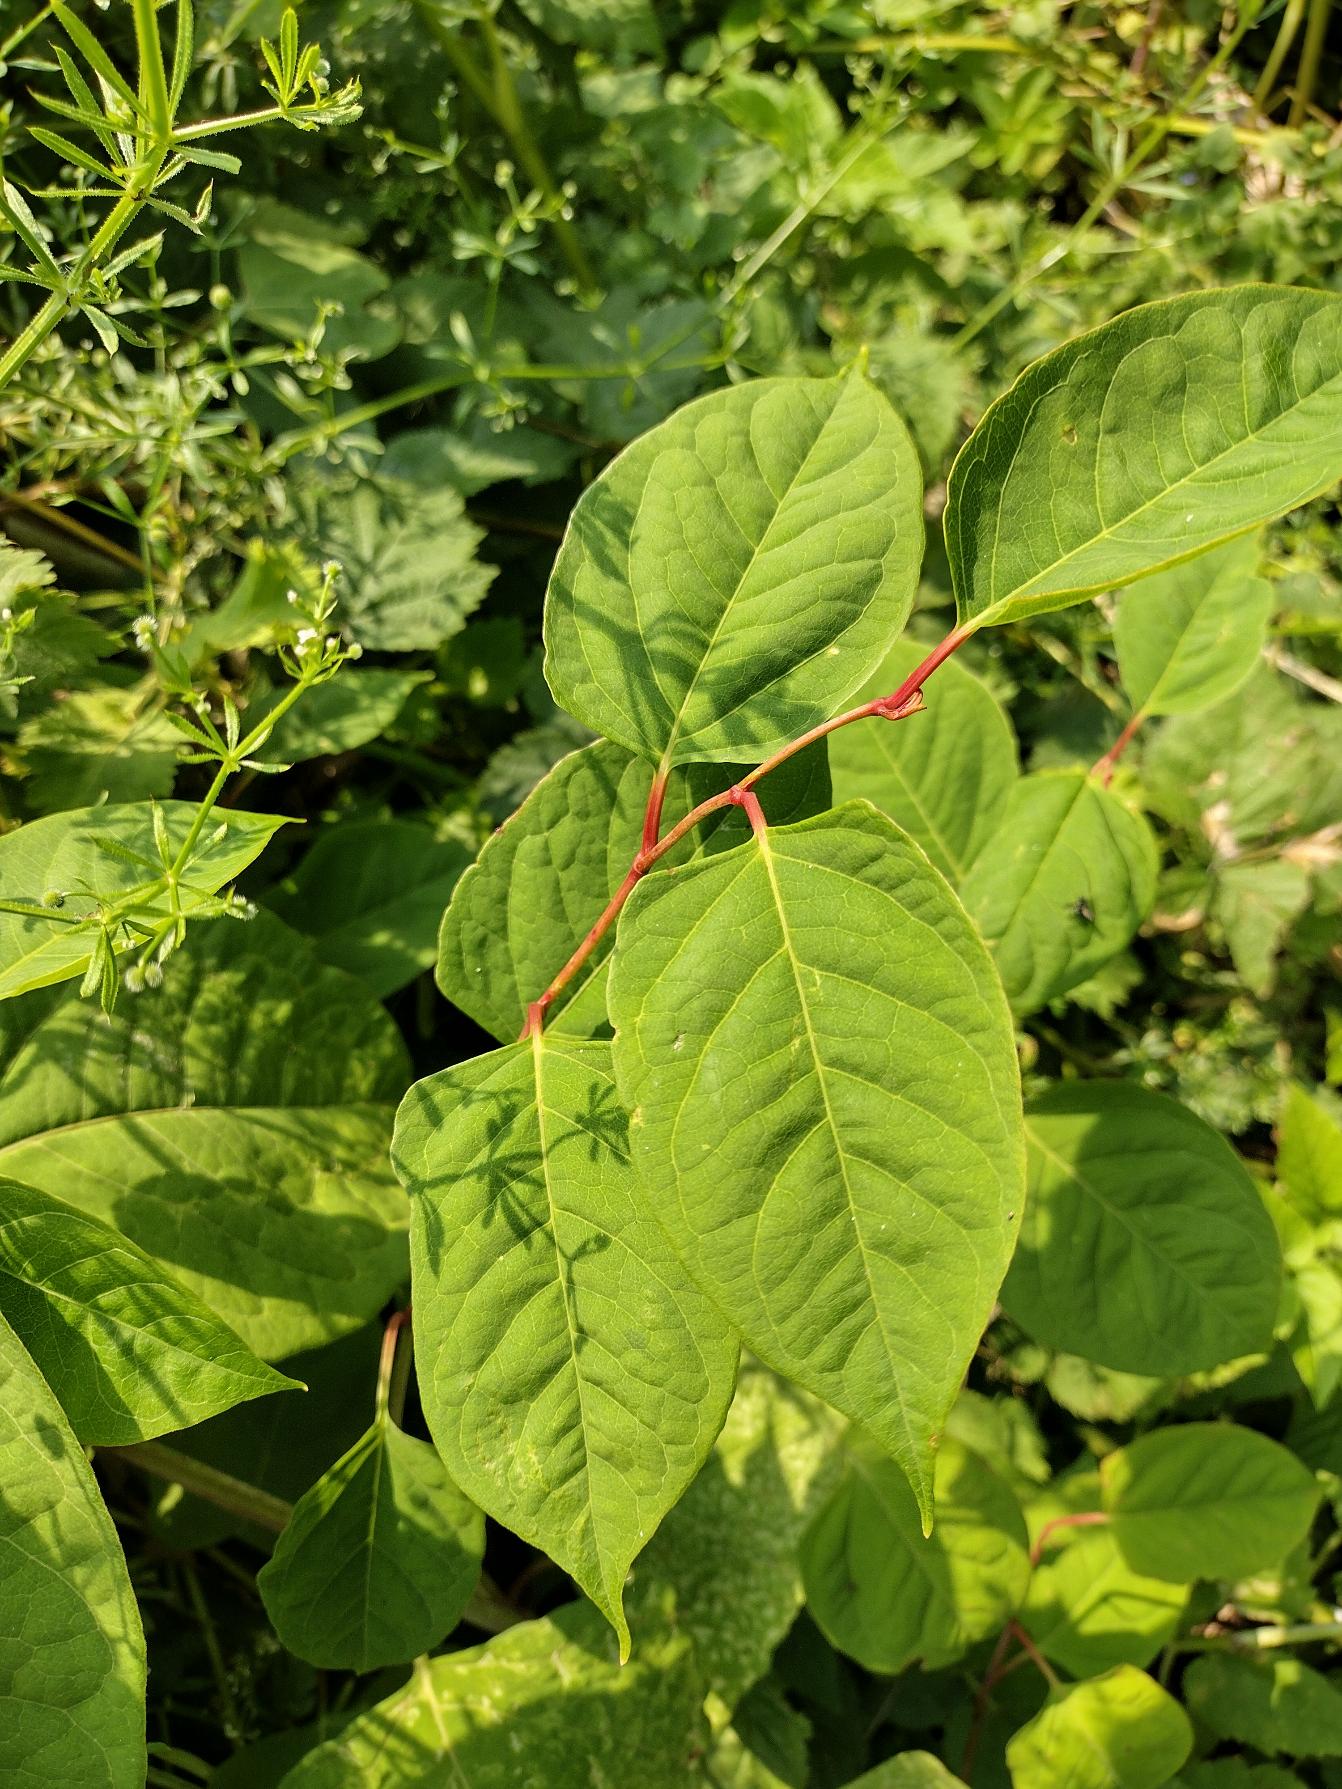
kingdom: Plantae
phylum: Tracheophyta
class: Magnoliopsida
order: Caryophyllales
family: Polygonaceae
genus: Reynoutria
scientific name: Reynoutria japonica
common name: Japan-pileurt
